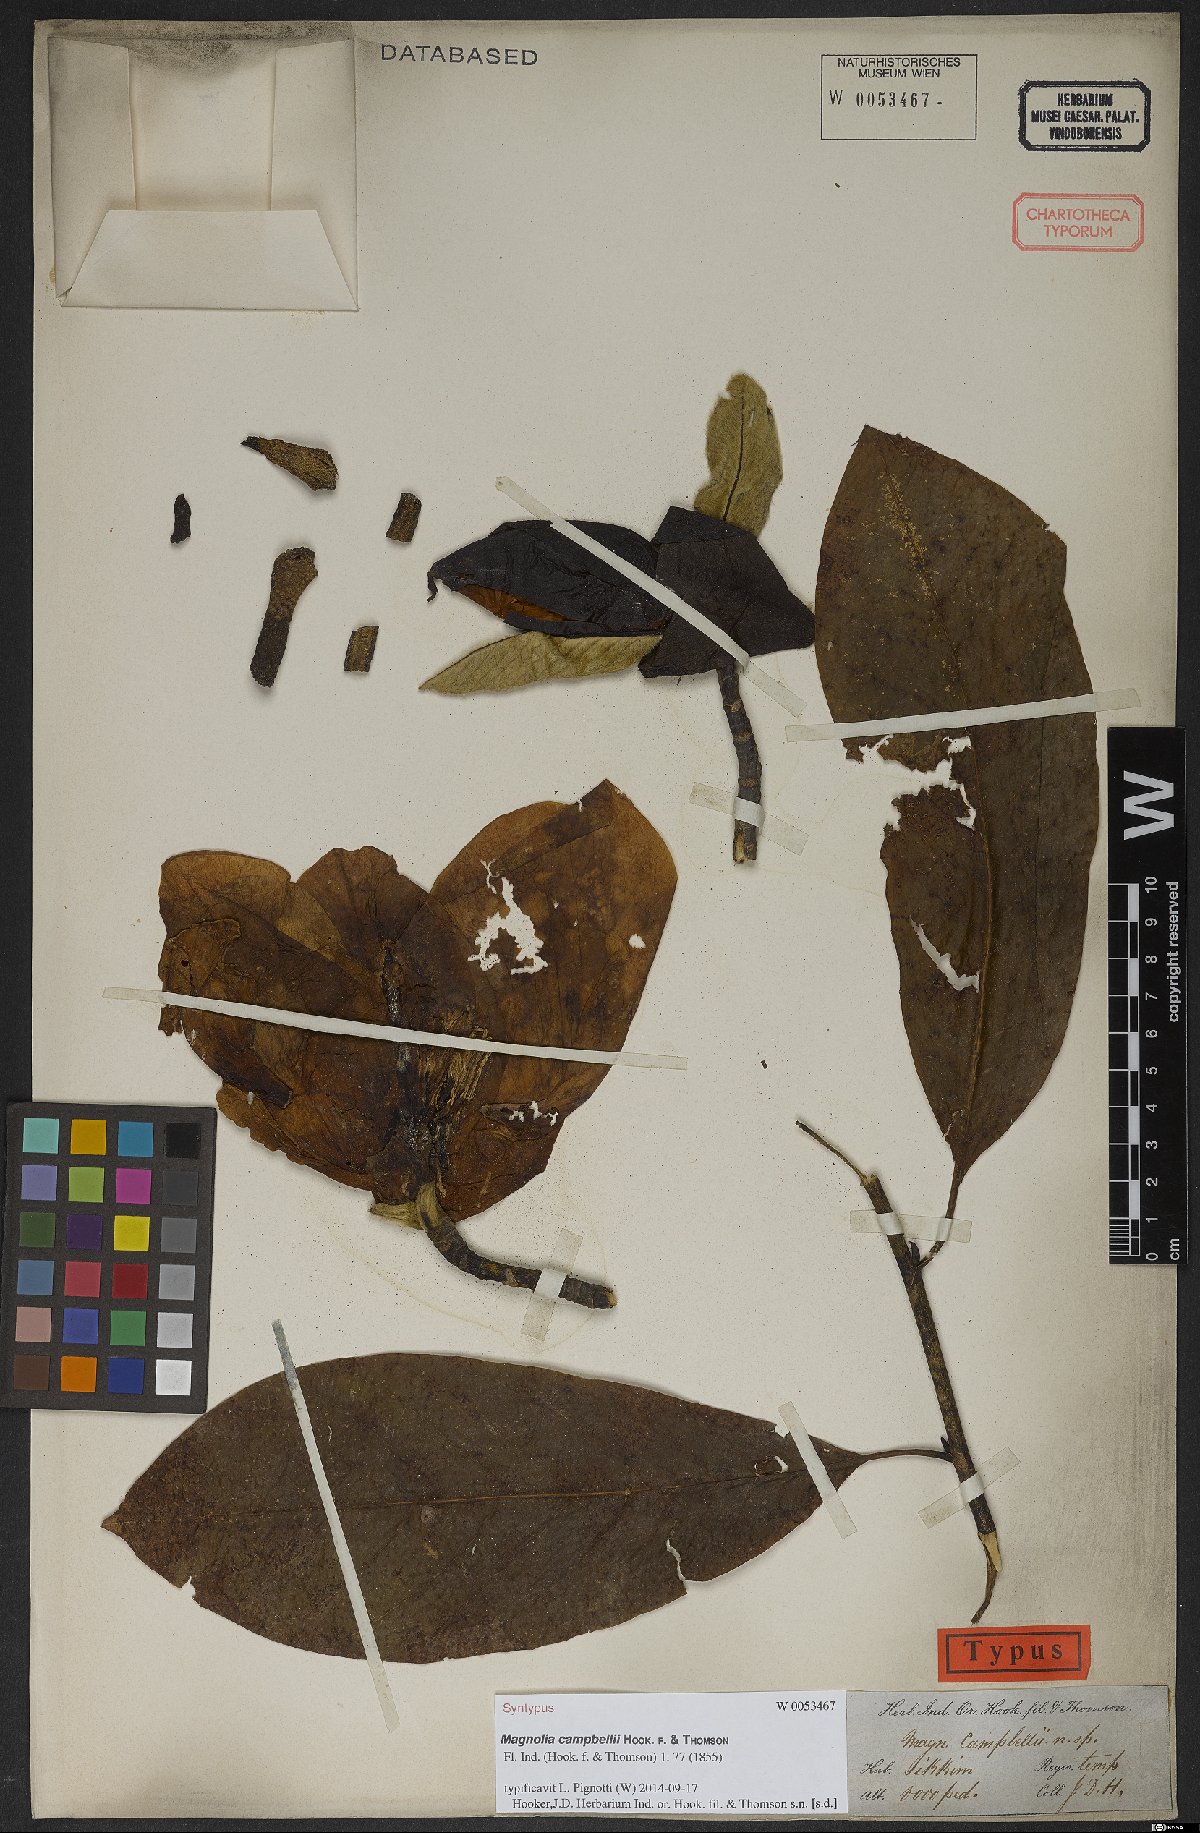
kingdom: Plantae
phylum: Tracheophyta
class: Magnoliopsida
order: Magnoliales
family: Magnoliaceae
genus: Magnolia
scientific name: Magnolia campbellii
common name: Campbell's magnolia
